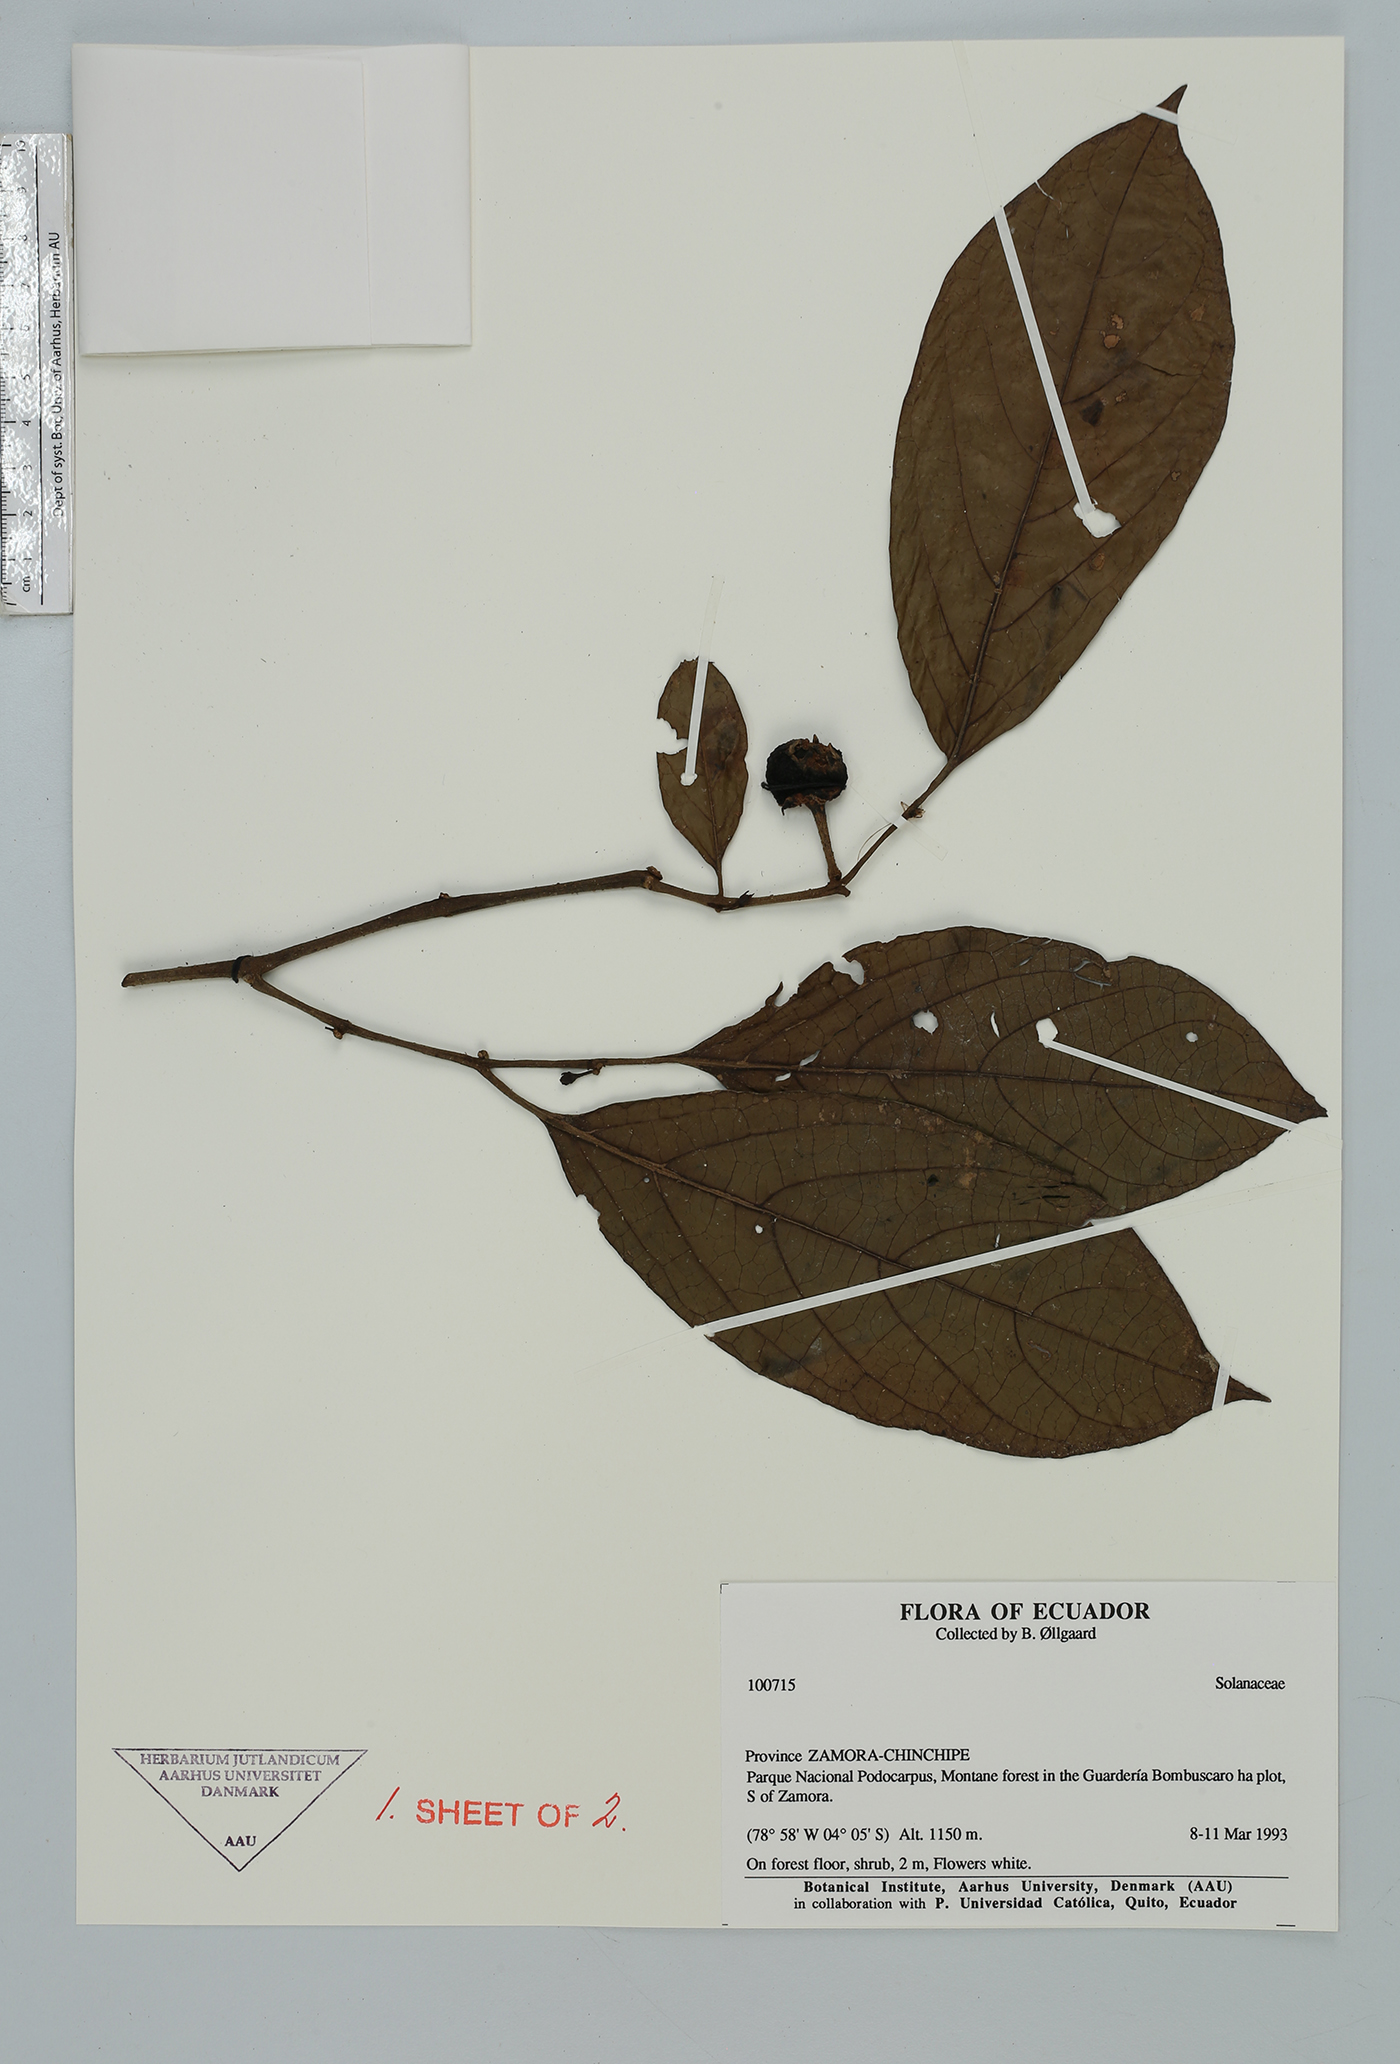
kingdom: Plantae
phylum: Tracheophyta
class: Magnoliopsida
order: Solanales
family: Solanaceae
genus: Solanum
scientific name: Solanum
